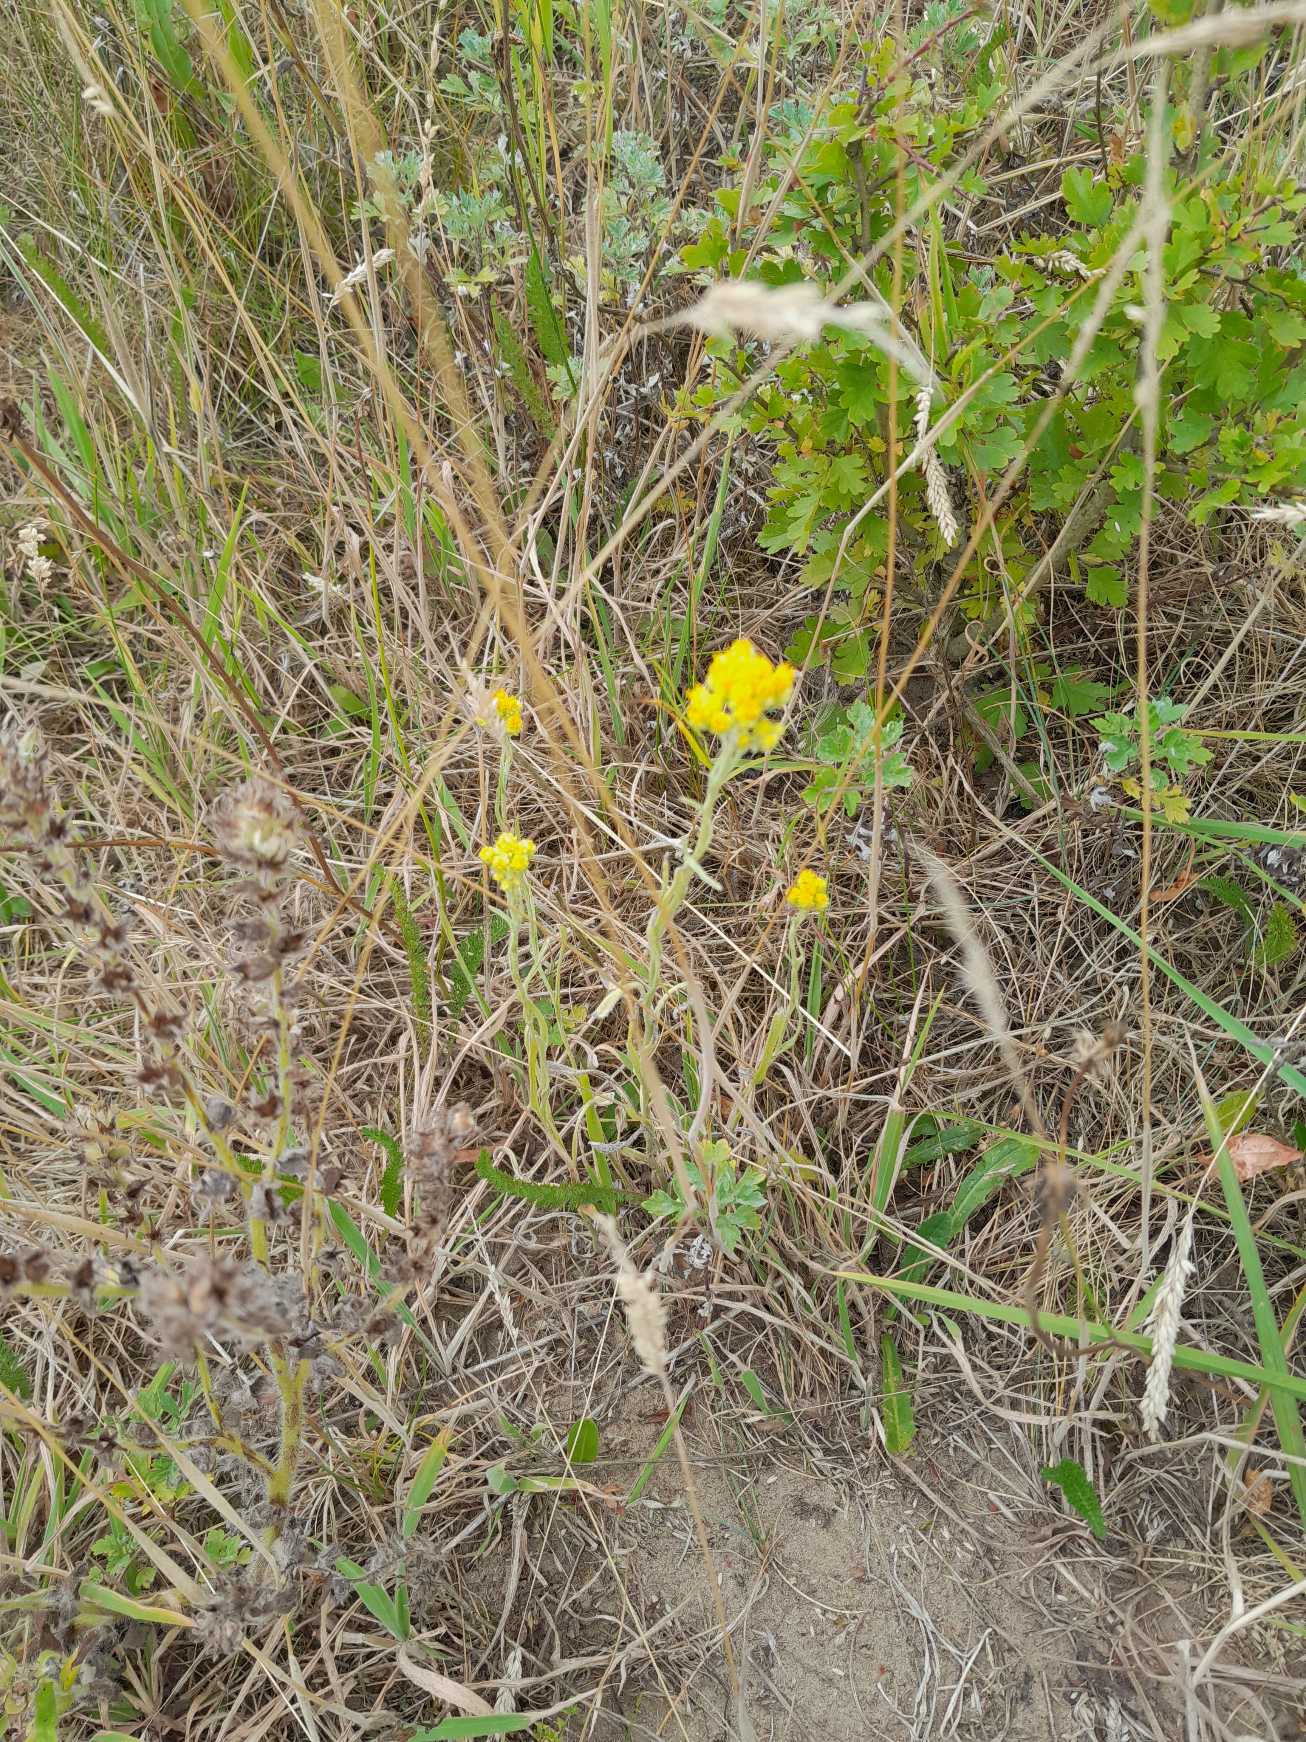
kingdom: Plantae
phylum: Tracheophyta
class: Magnoliopsida
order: Asterales
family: Asteraceae
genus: Helichrysum
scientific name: Helichrysum arenarium
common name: Gul evighedsblomst
